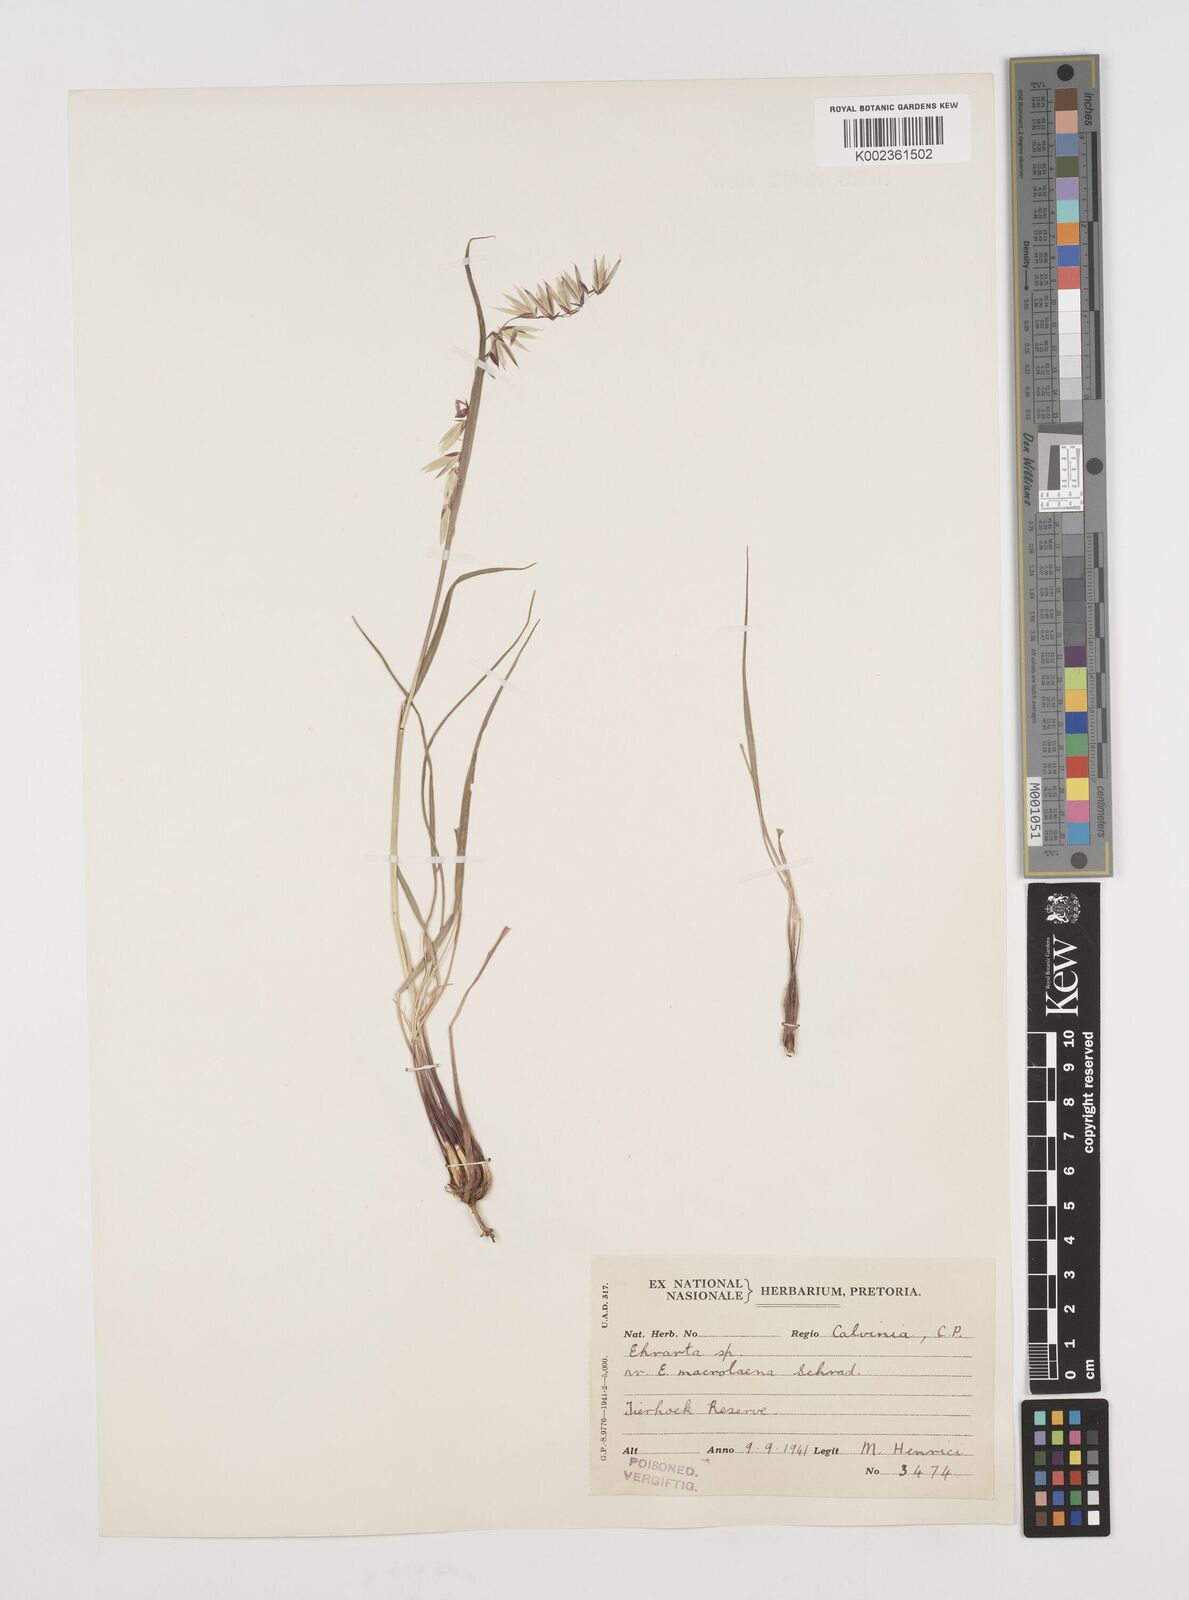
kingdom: Plantae
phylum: Tracheophyta
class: Liliopsida
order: Poales
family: Poaceae
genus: Ehrharta
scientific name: Ehrharta eburnea
